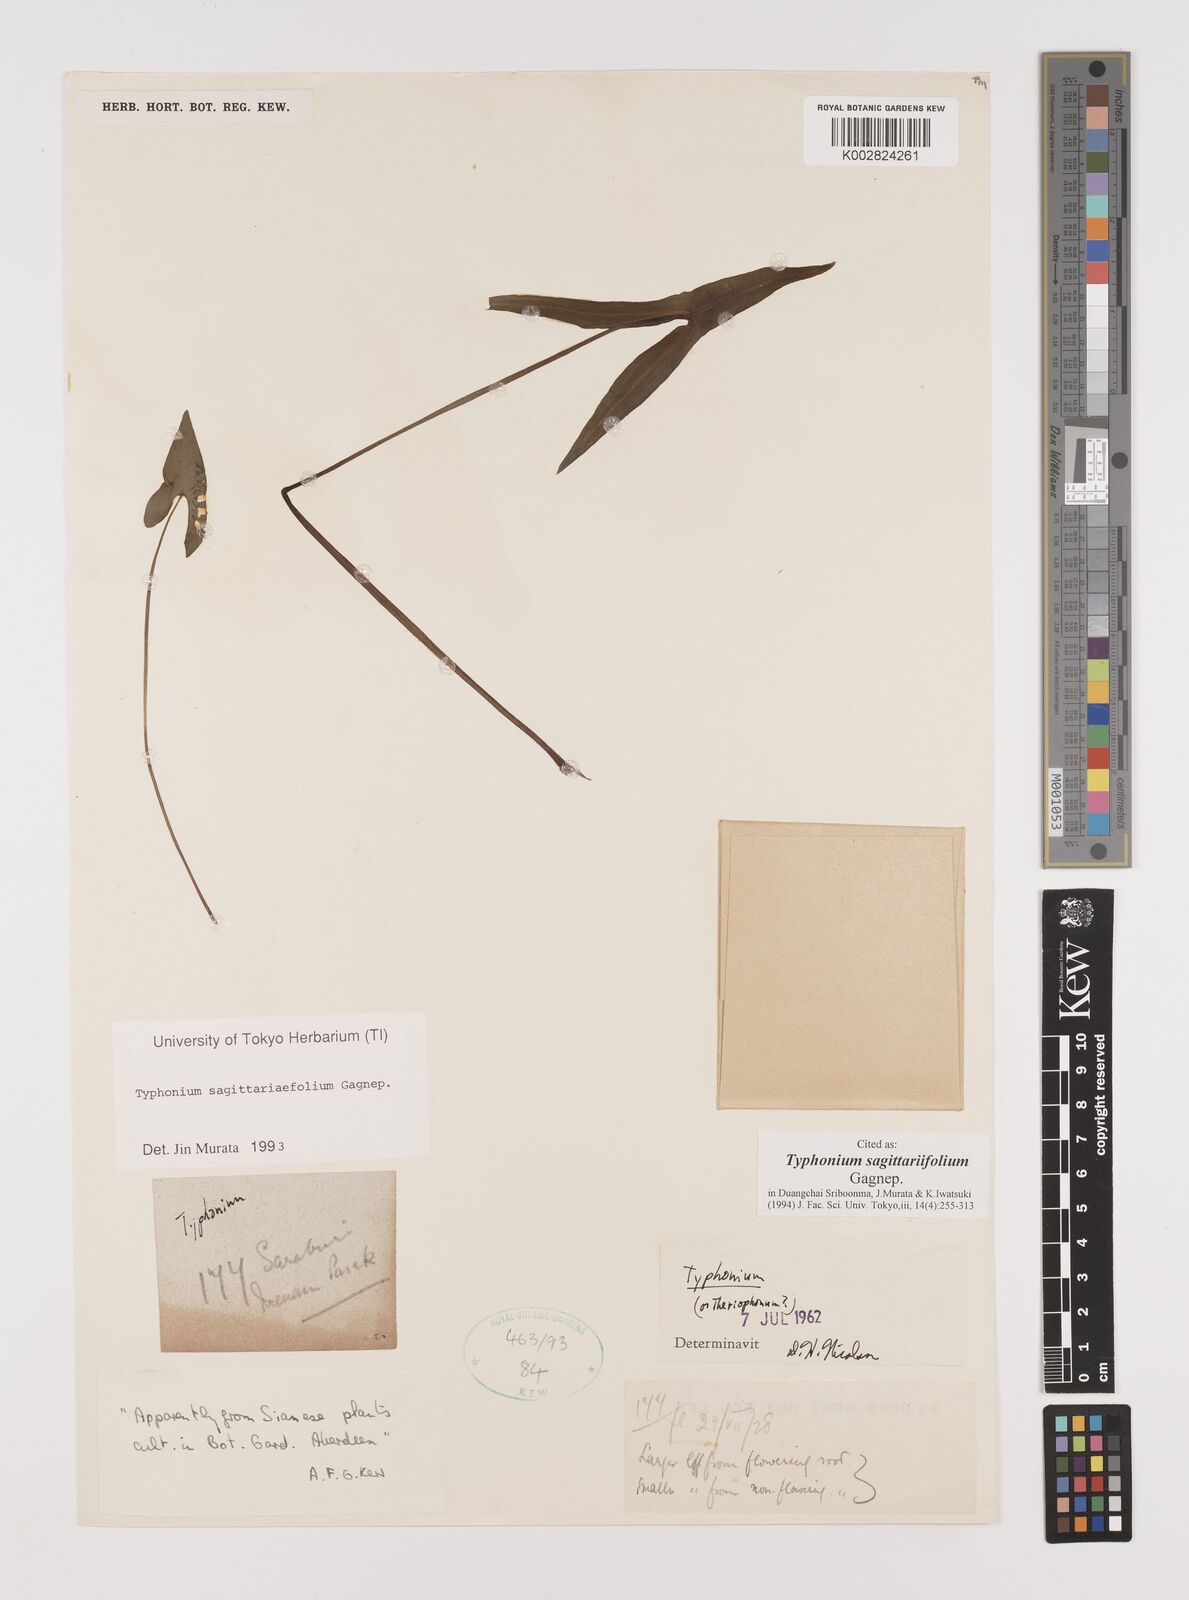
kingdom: Plantae
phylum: Tracheophyta
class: Liliopsida
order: Alismatales
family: Araceae
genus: Typhonium
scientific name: Typhonium sagittariifolium
